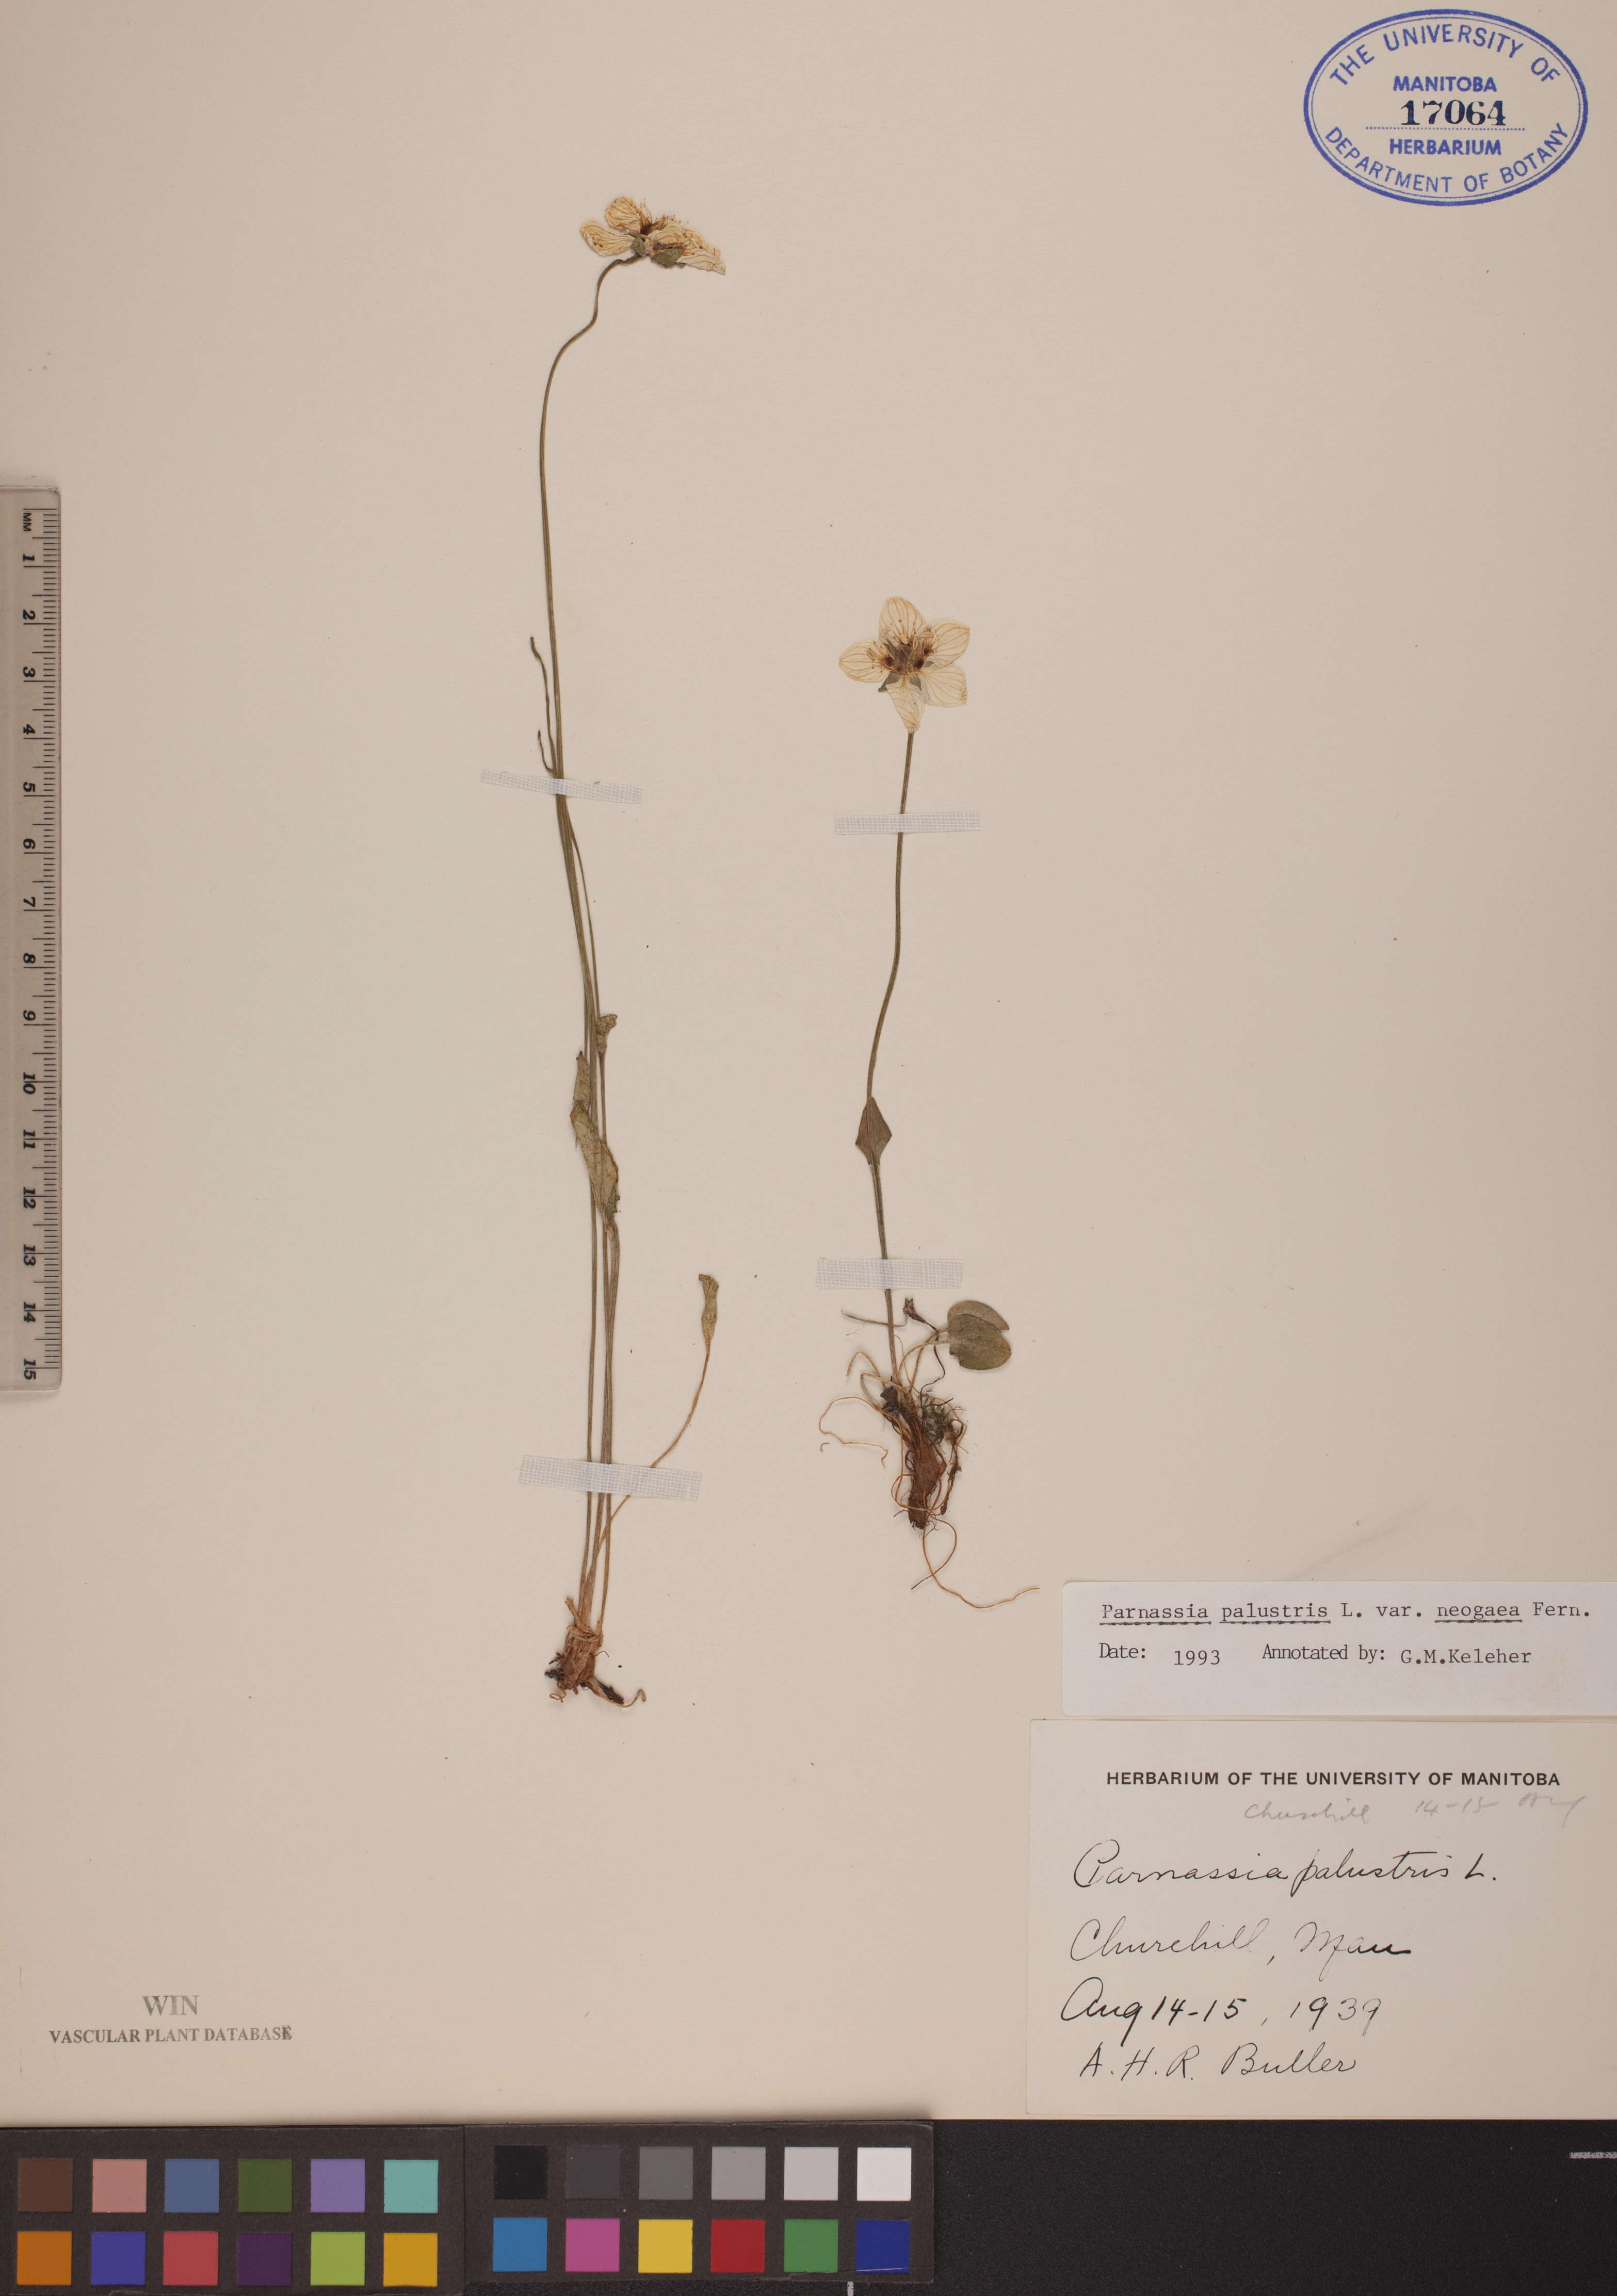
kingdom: Plantae
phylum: Tracheophyta
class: Magnoliopsida
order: Celastrales
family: Parnassiaceae
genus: Parnassia
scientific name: Parnassia palustris
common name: Grass-of-parnassus
